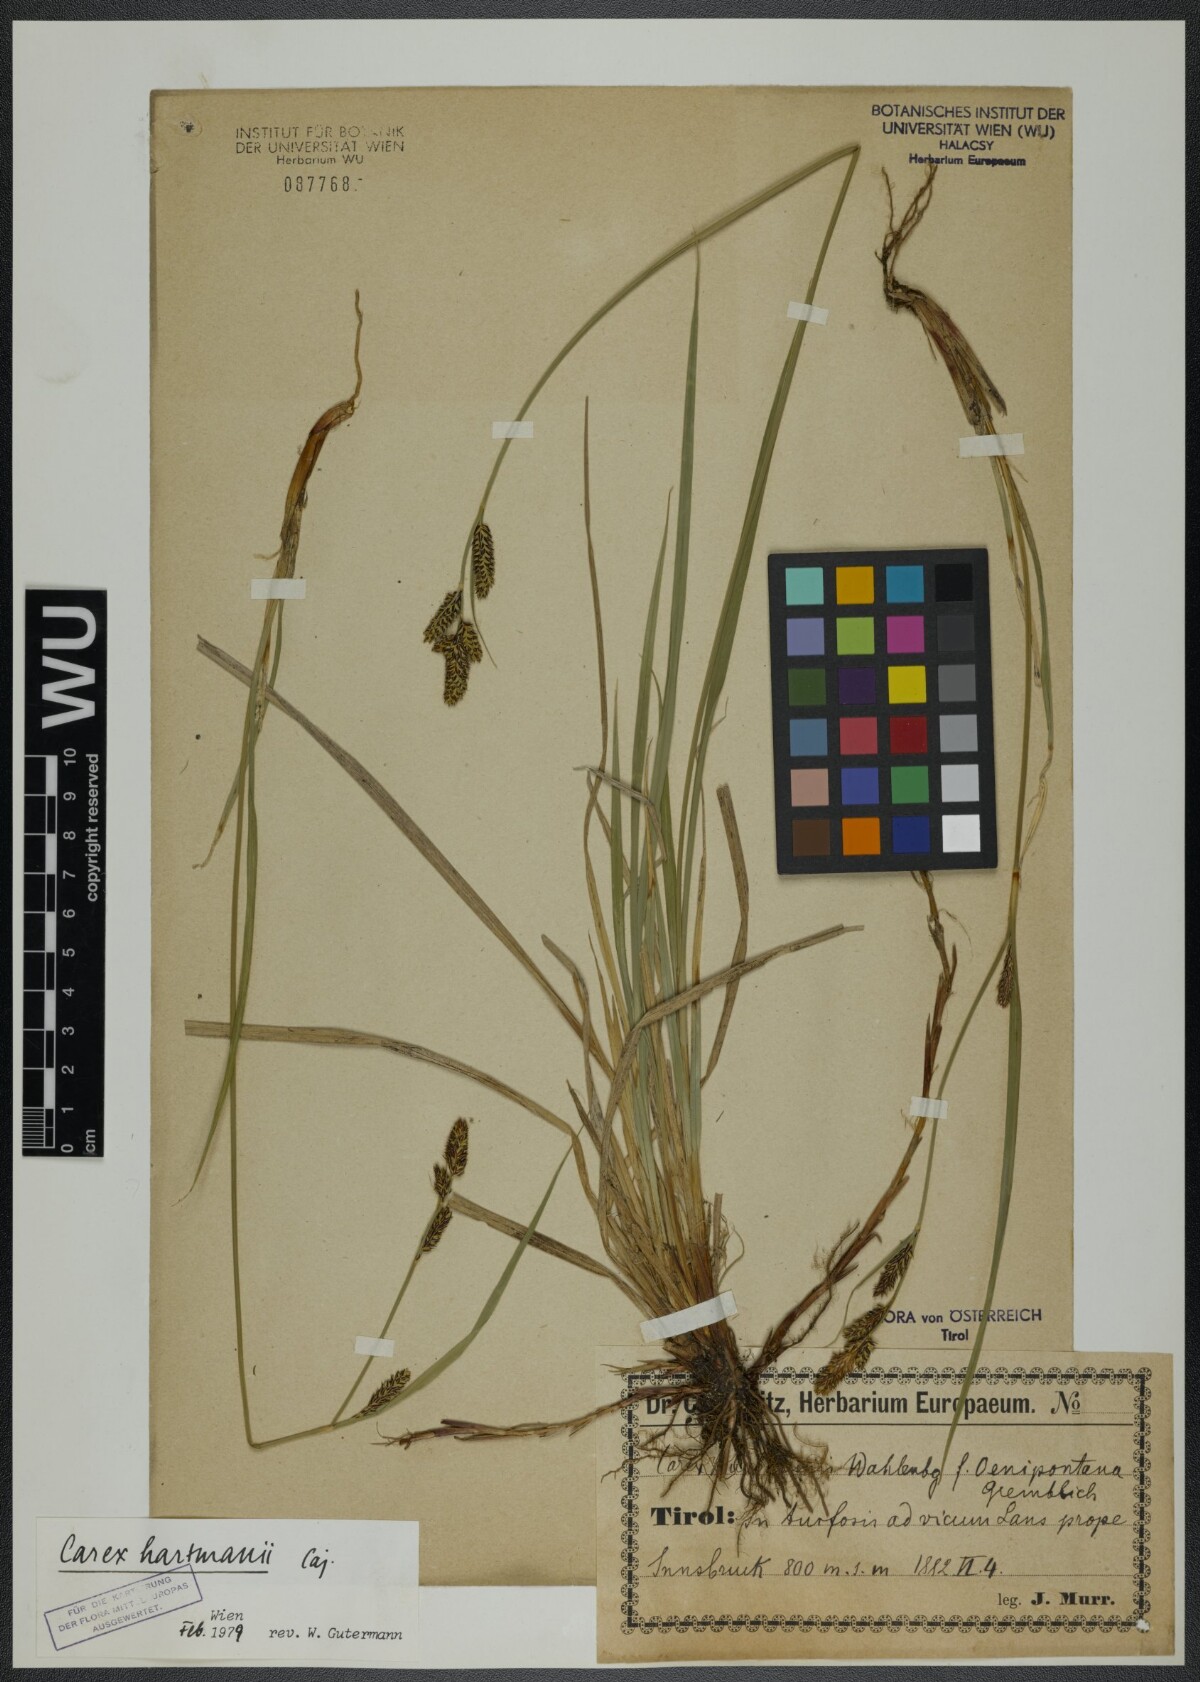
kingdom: Plantae
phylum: Tracheophyta
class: Liliopsida
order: Poales
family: Cyperaceae
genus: Carex
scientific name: Carex hartmaniorum
